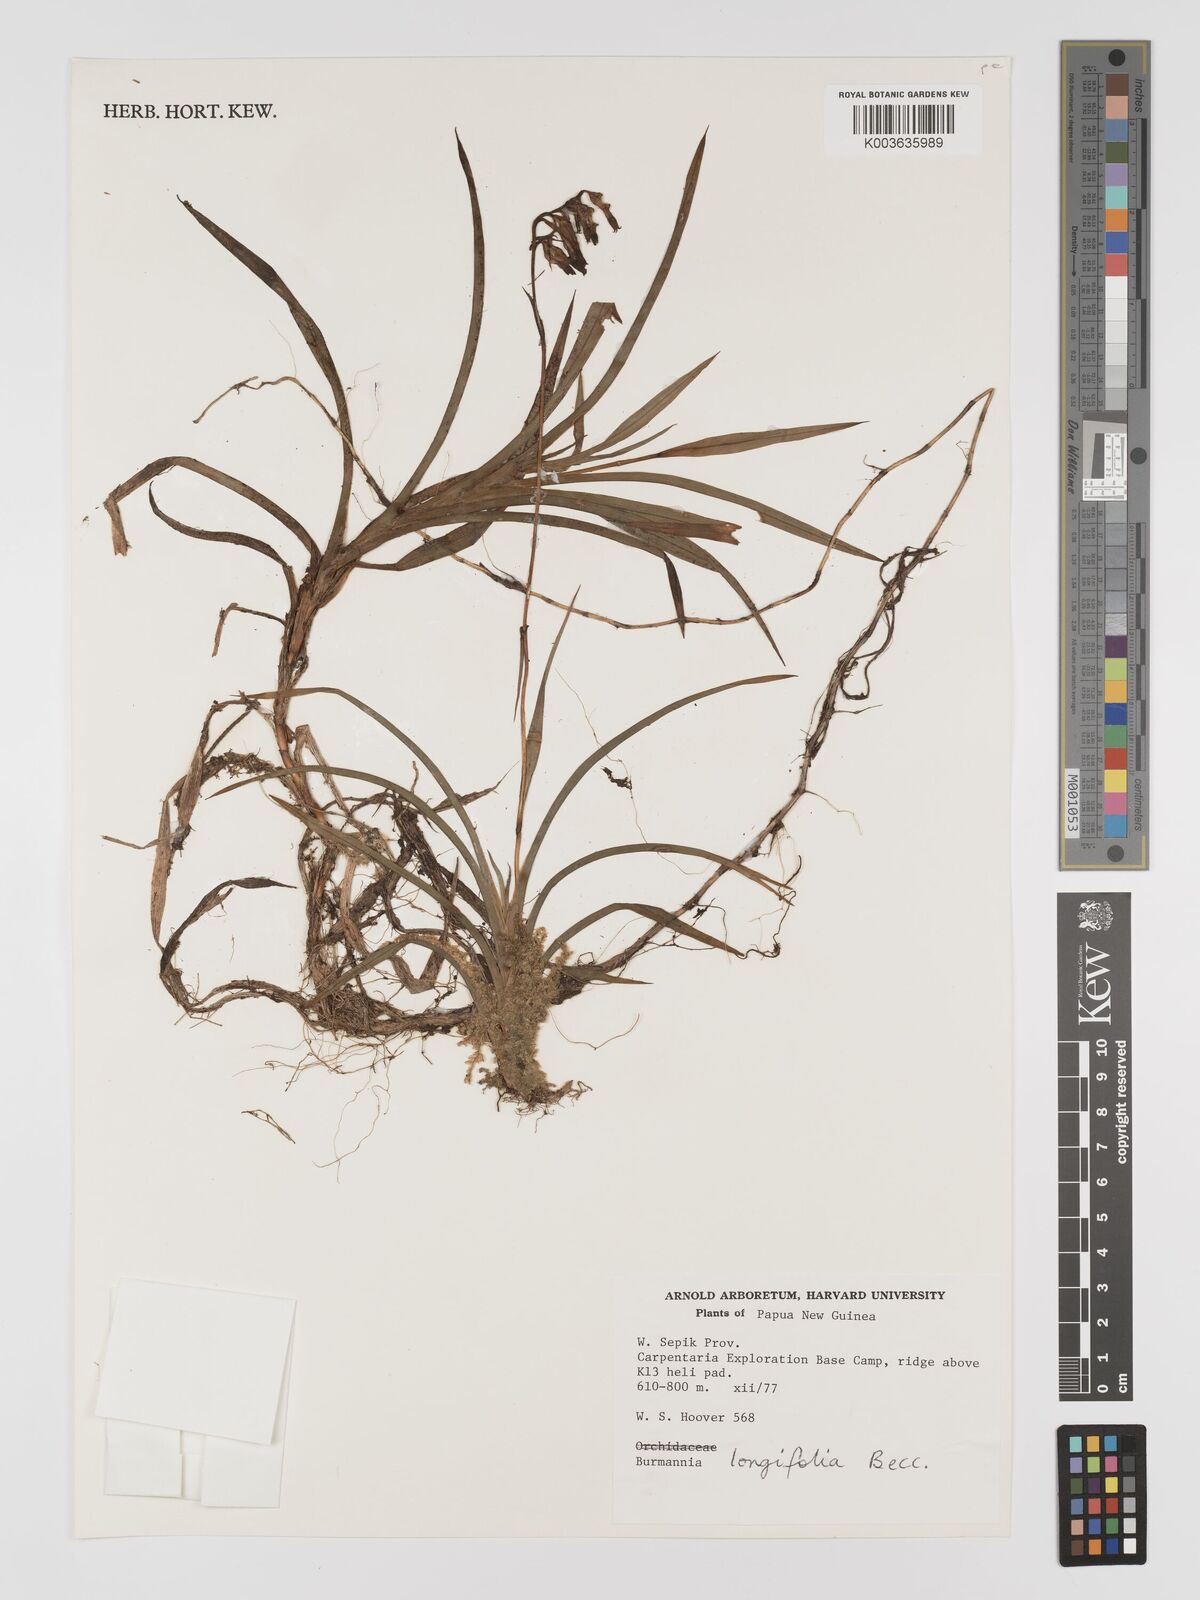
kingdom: Plantae
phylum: Tracheophyta
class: Liliopsida
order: Dioscoreales
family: Burmanniaceae
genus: Burmannia
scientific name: Burmannia longifolia
